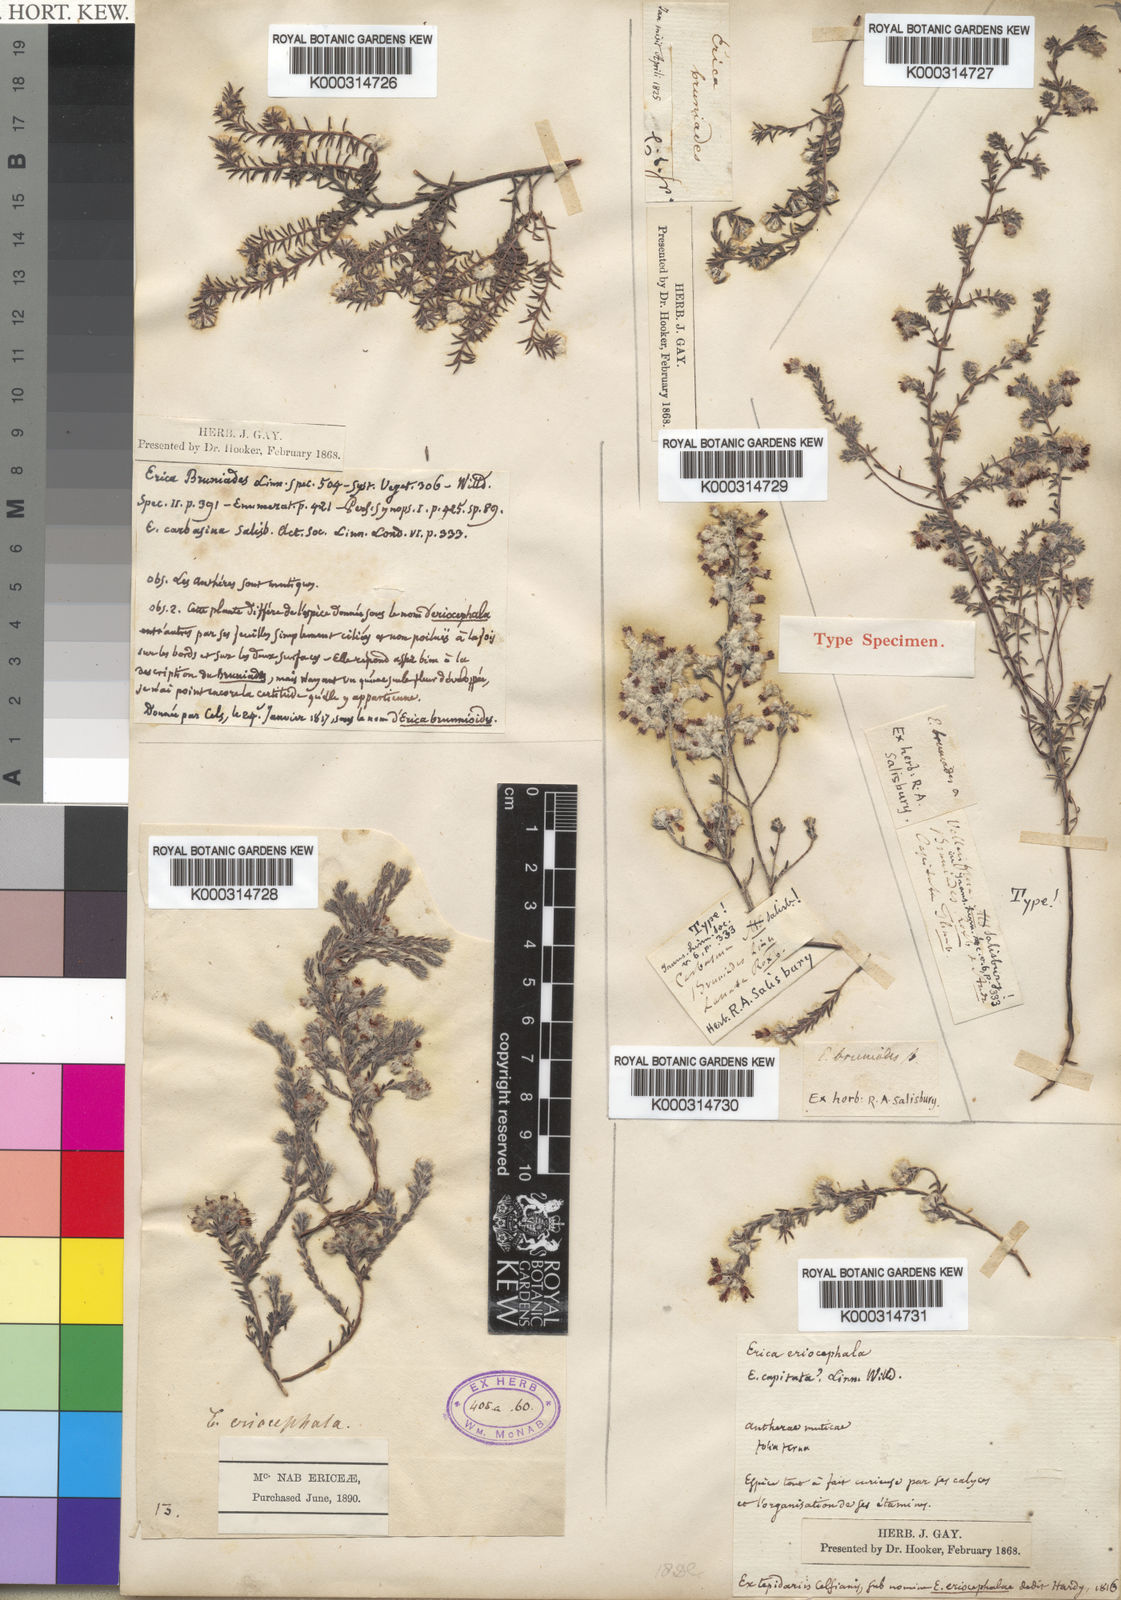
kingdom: Plantae
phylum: Tracheophyta
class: Magnoliopsida
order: Ericales
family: Ericaceae
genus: Erica
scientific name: Erica bruniades
